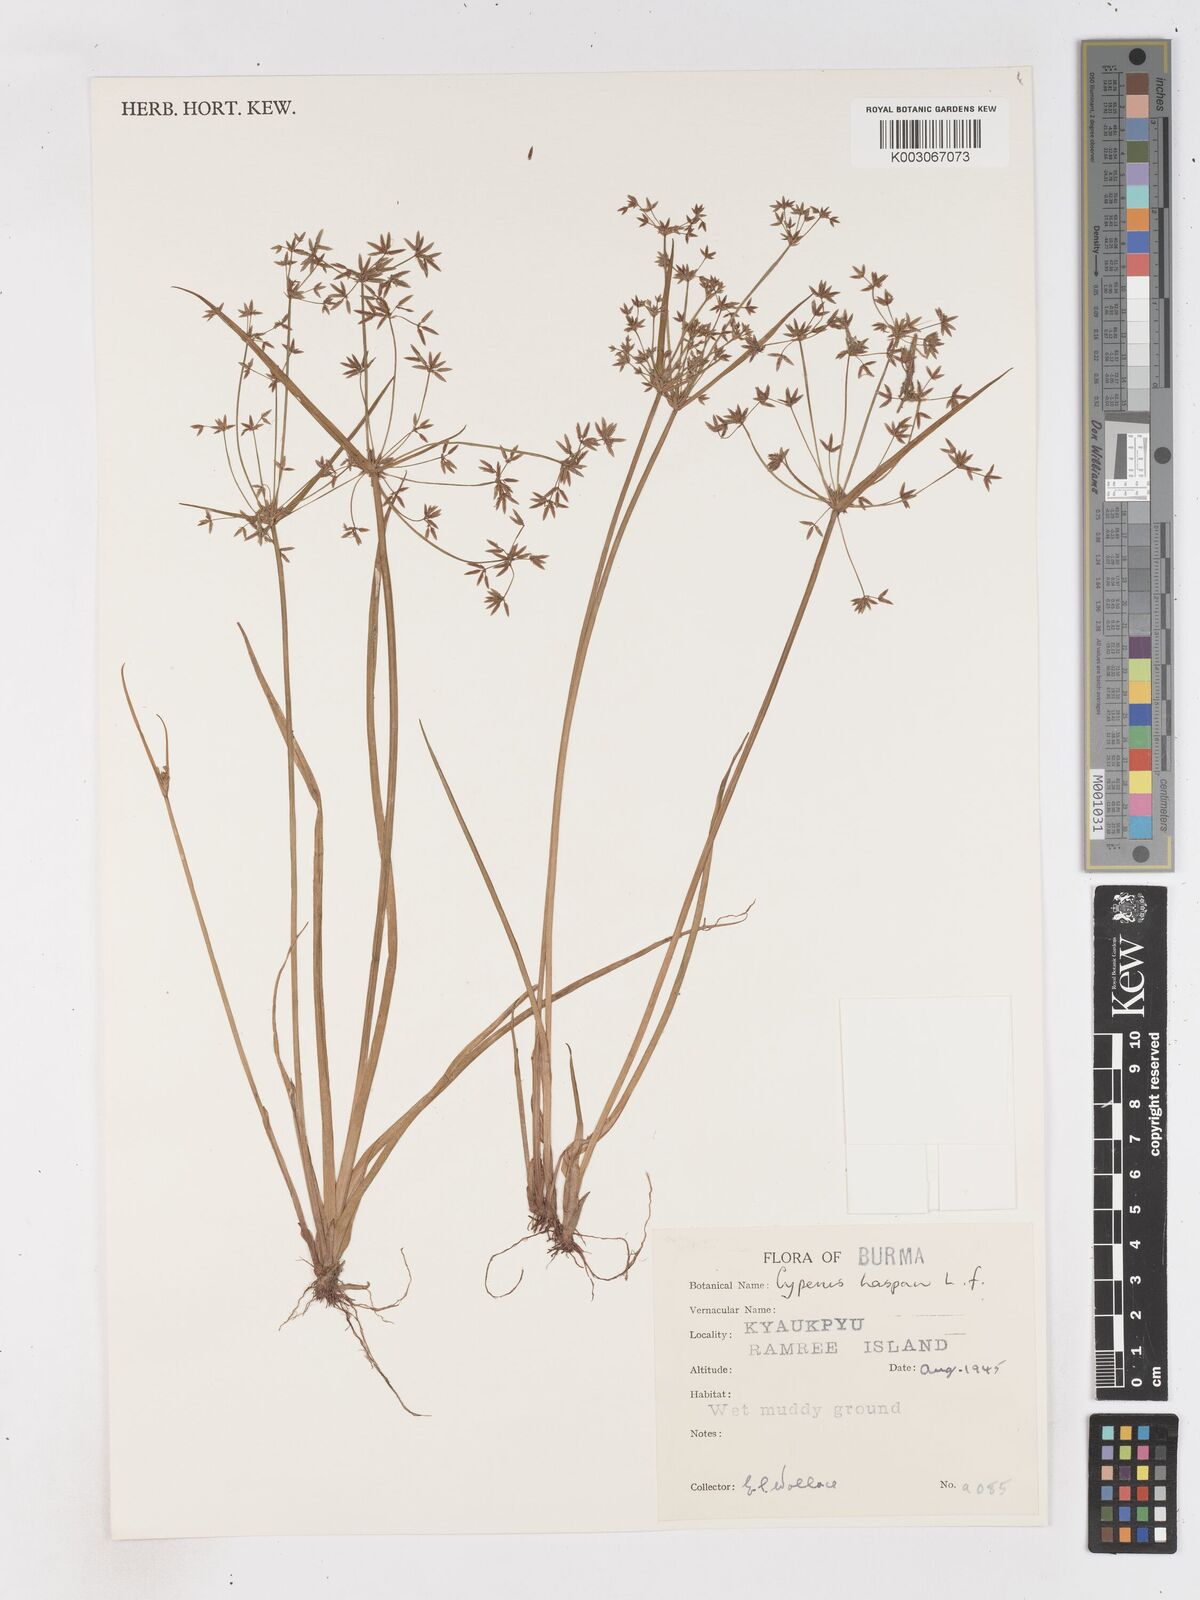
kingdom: Plantae
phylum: Tracheophyta
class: Liliopsida
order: Poales
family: Cyperaceae
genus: Cyperus
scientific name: Cyperus haspan
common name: Haspan flatsedge
